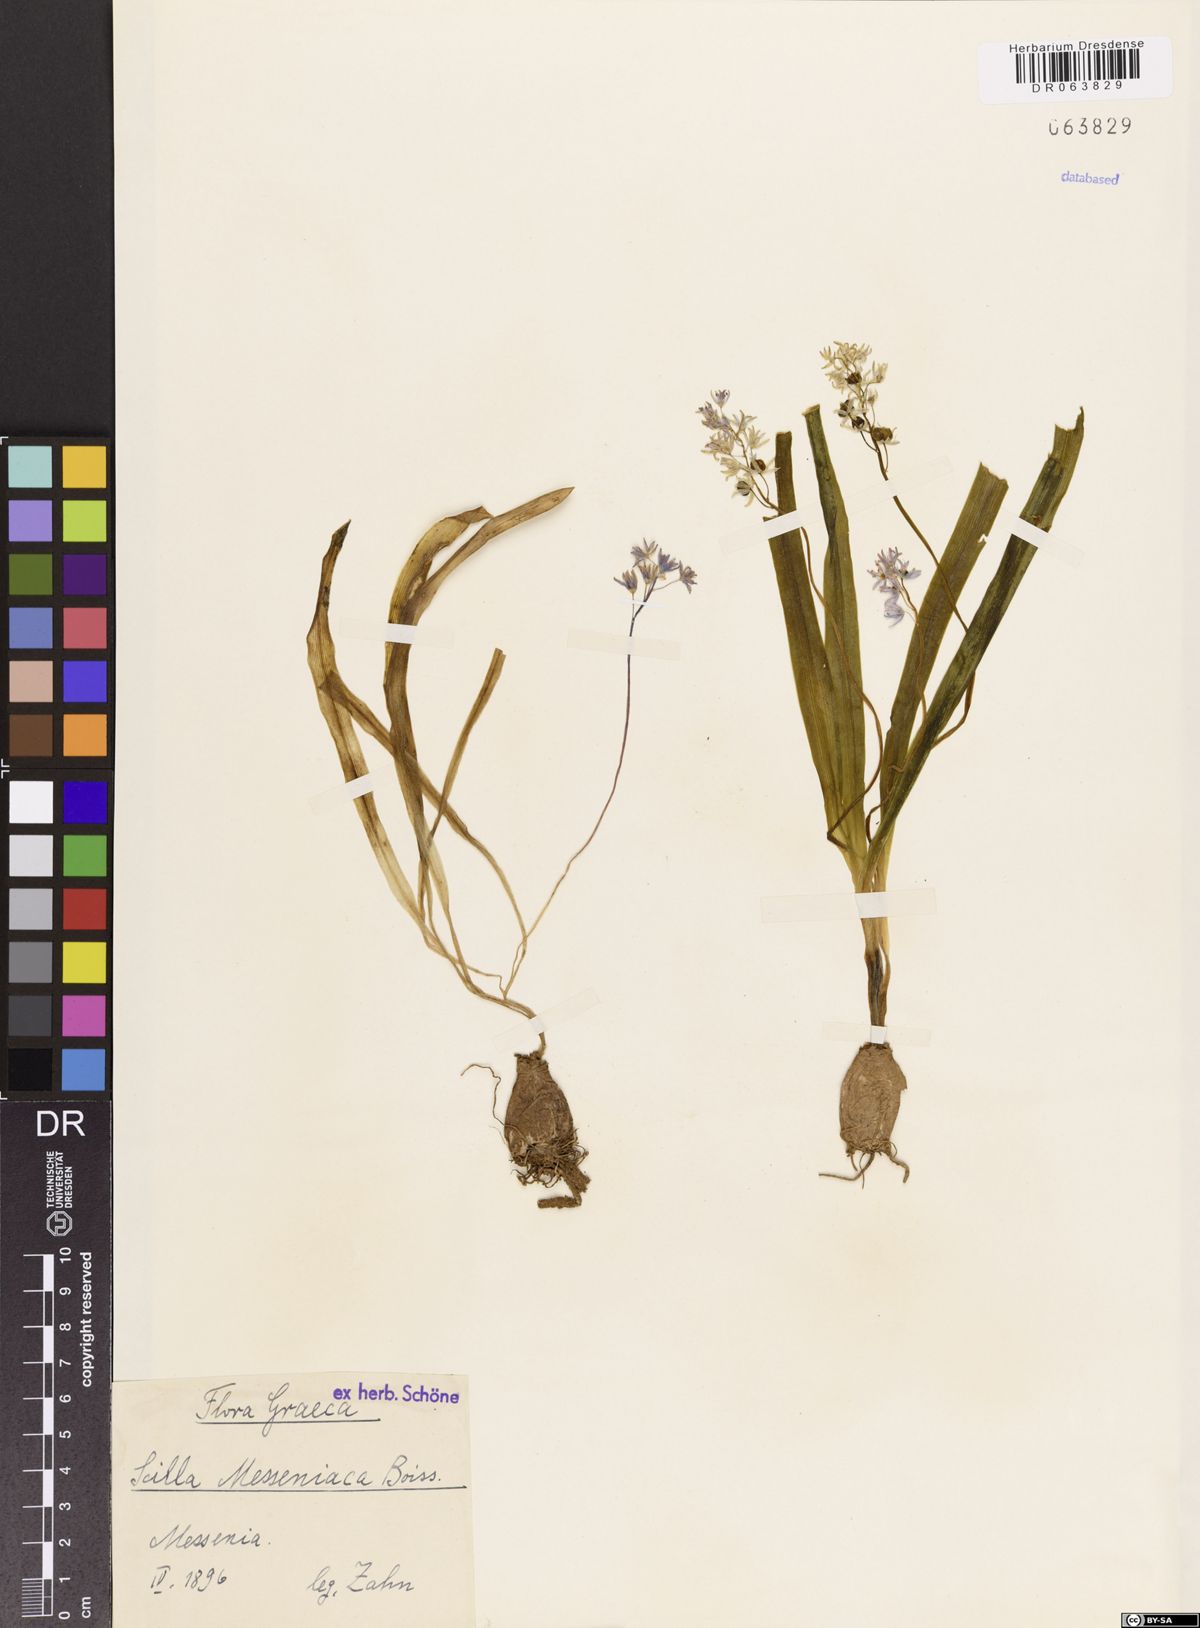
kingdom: Plantae
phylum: Tracheophyta
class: Liliopsida
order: Asparagales
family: Asparagaceae
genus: Scilla
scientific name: Scilla messeniaca
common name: Greek squill
